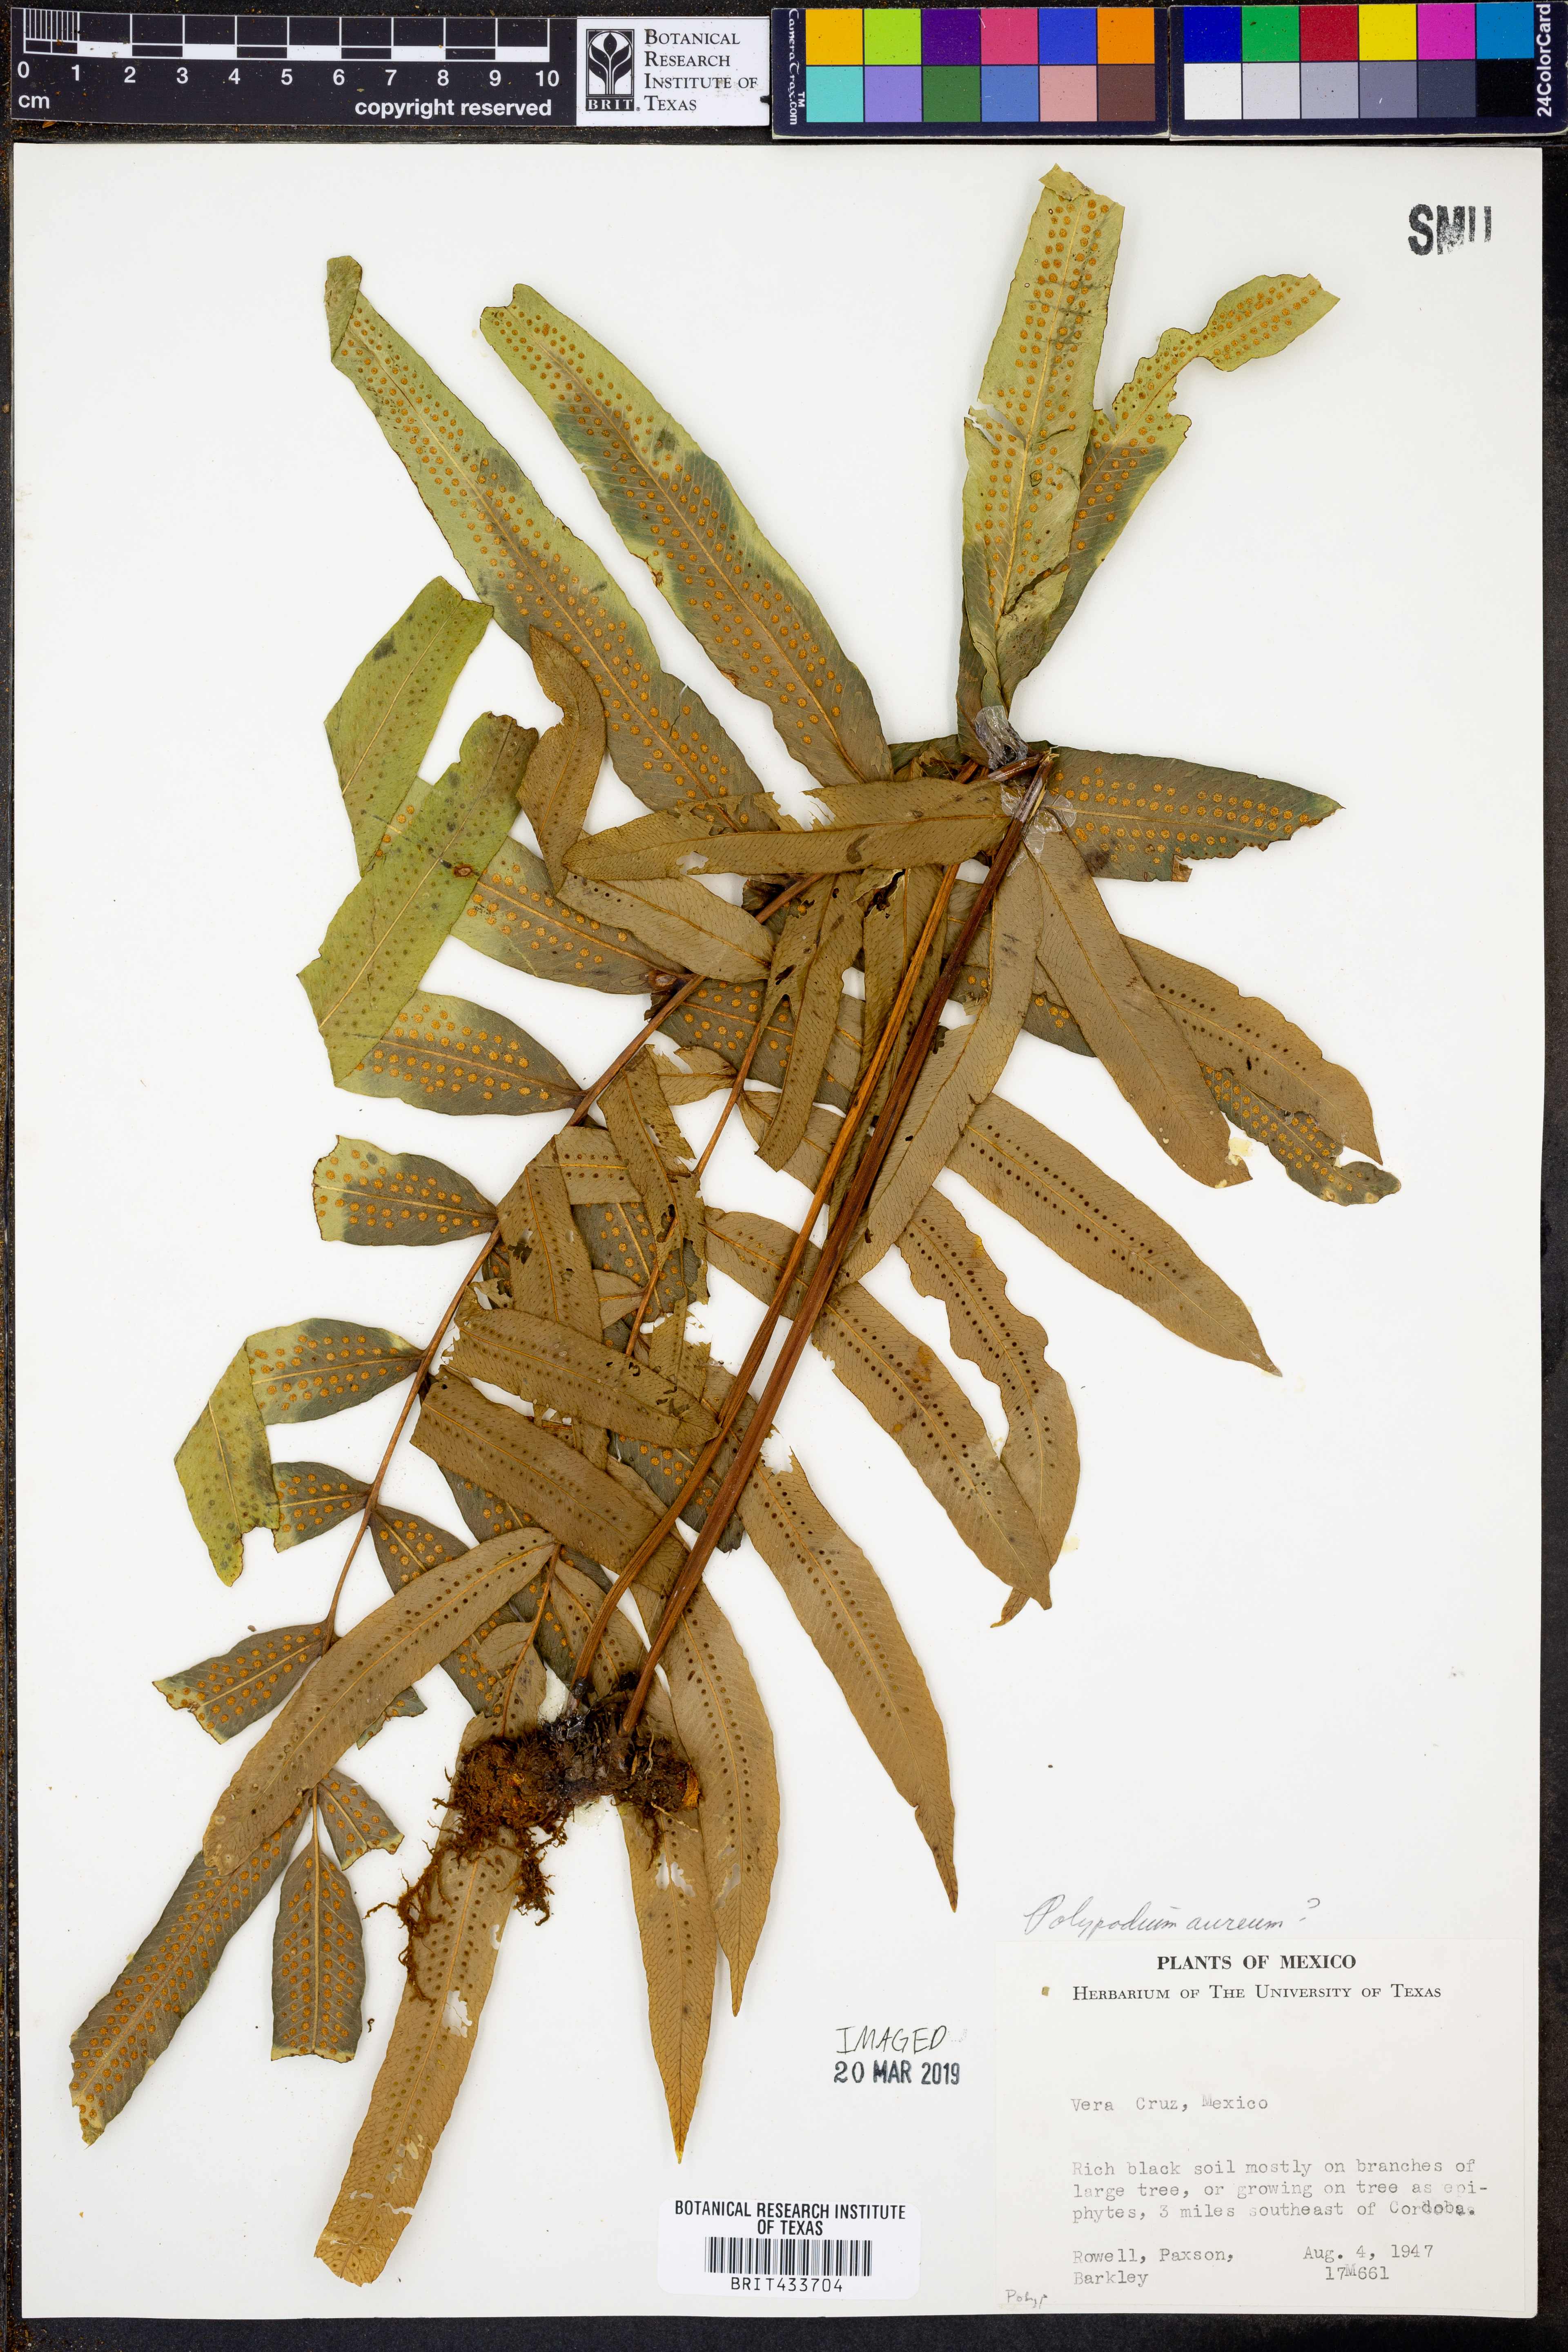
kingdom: Plantae
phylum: Tracheophyta
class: Polypodiopsida
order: Polypodiales
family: Polypodiaceae
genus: Phlebodium
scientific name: Phlebodium aureum
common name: Gold-foot fern
